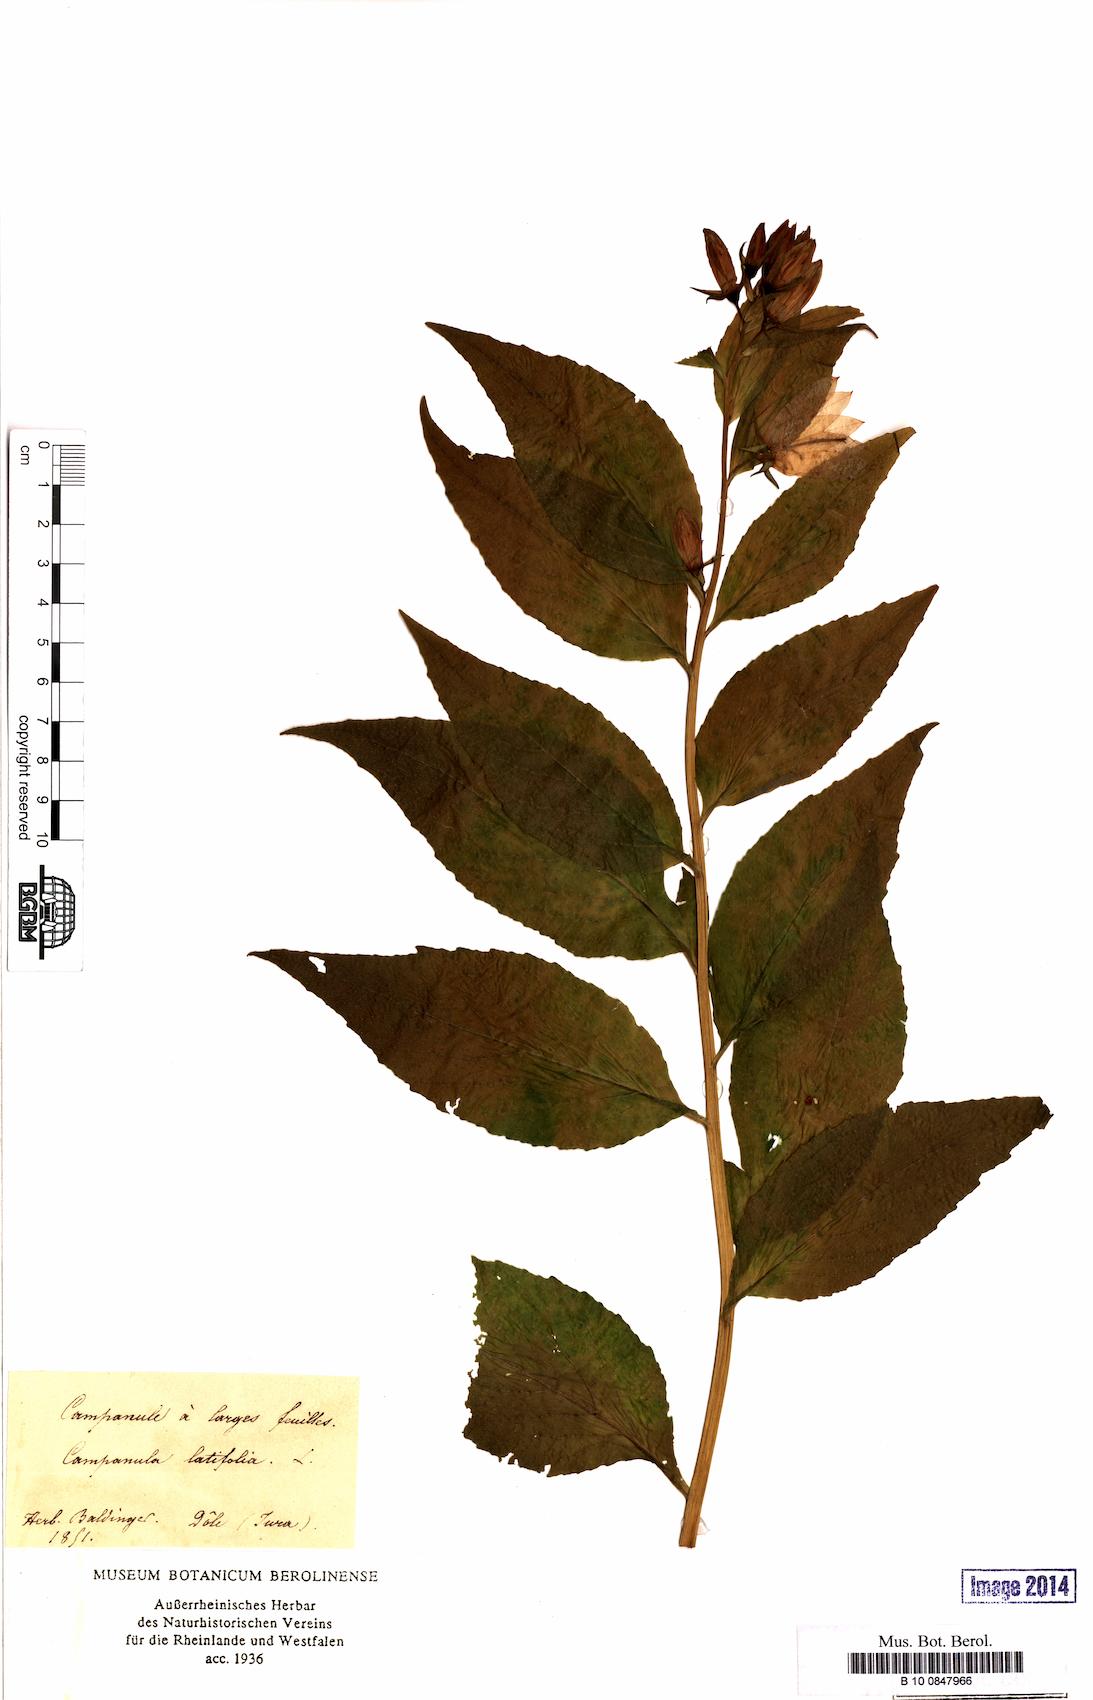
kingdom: Plantae
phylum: Tracheophyta
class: Magnoliopsida
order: Asterales
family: Campanulaceae
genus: Campanula
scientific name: Campanula latifolia
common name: Giant bellflower
